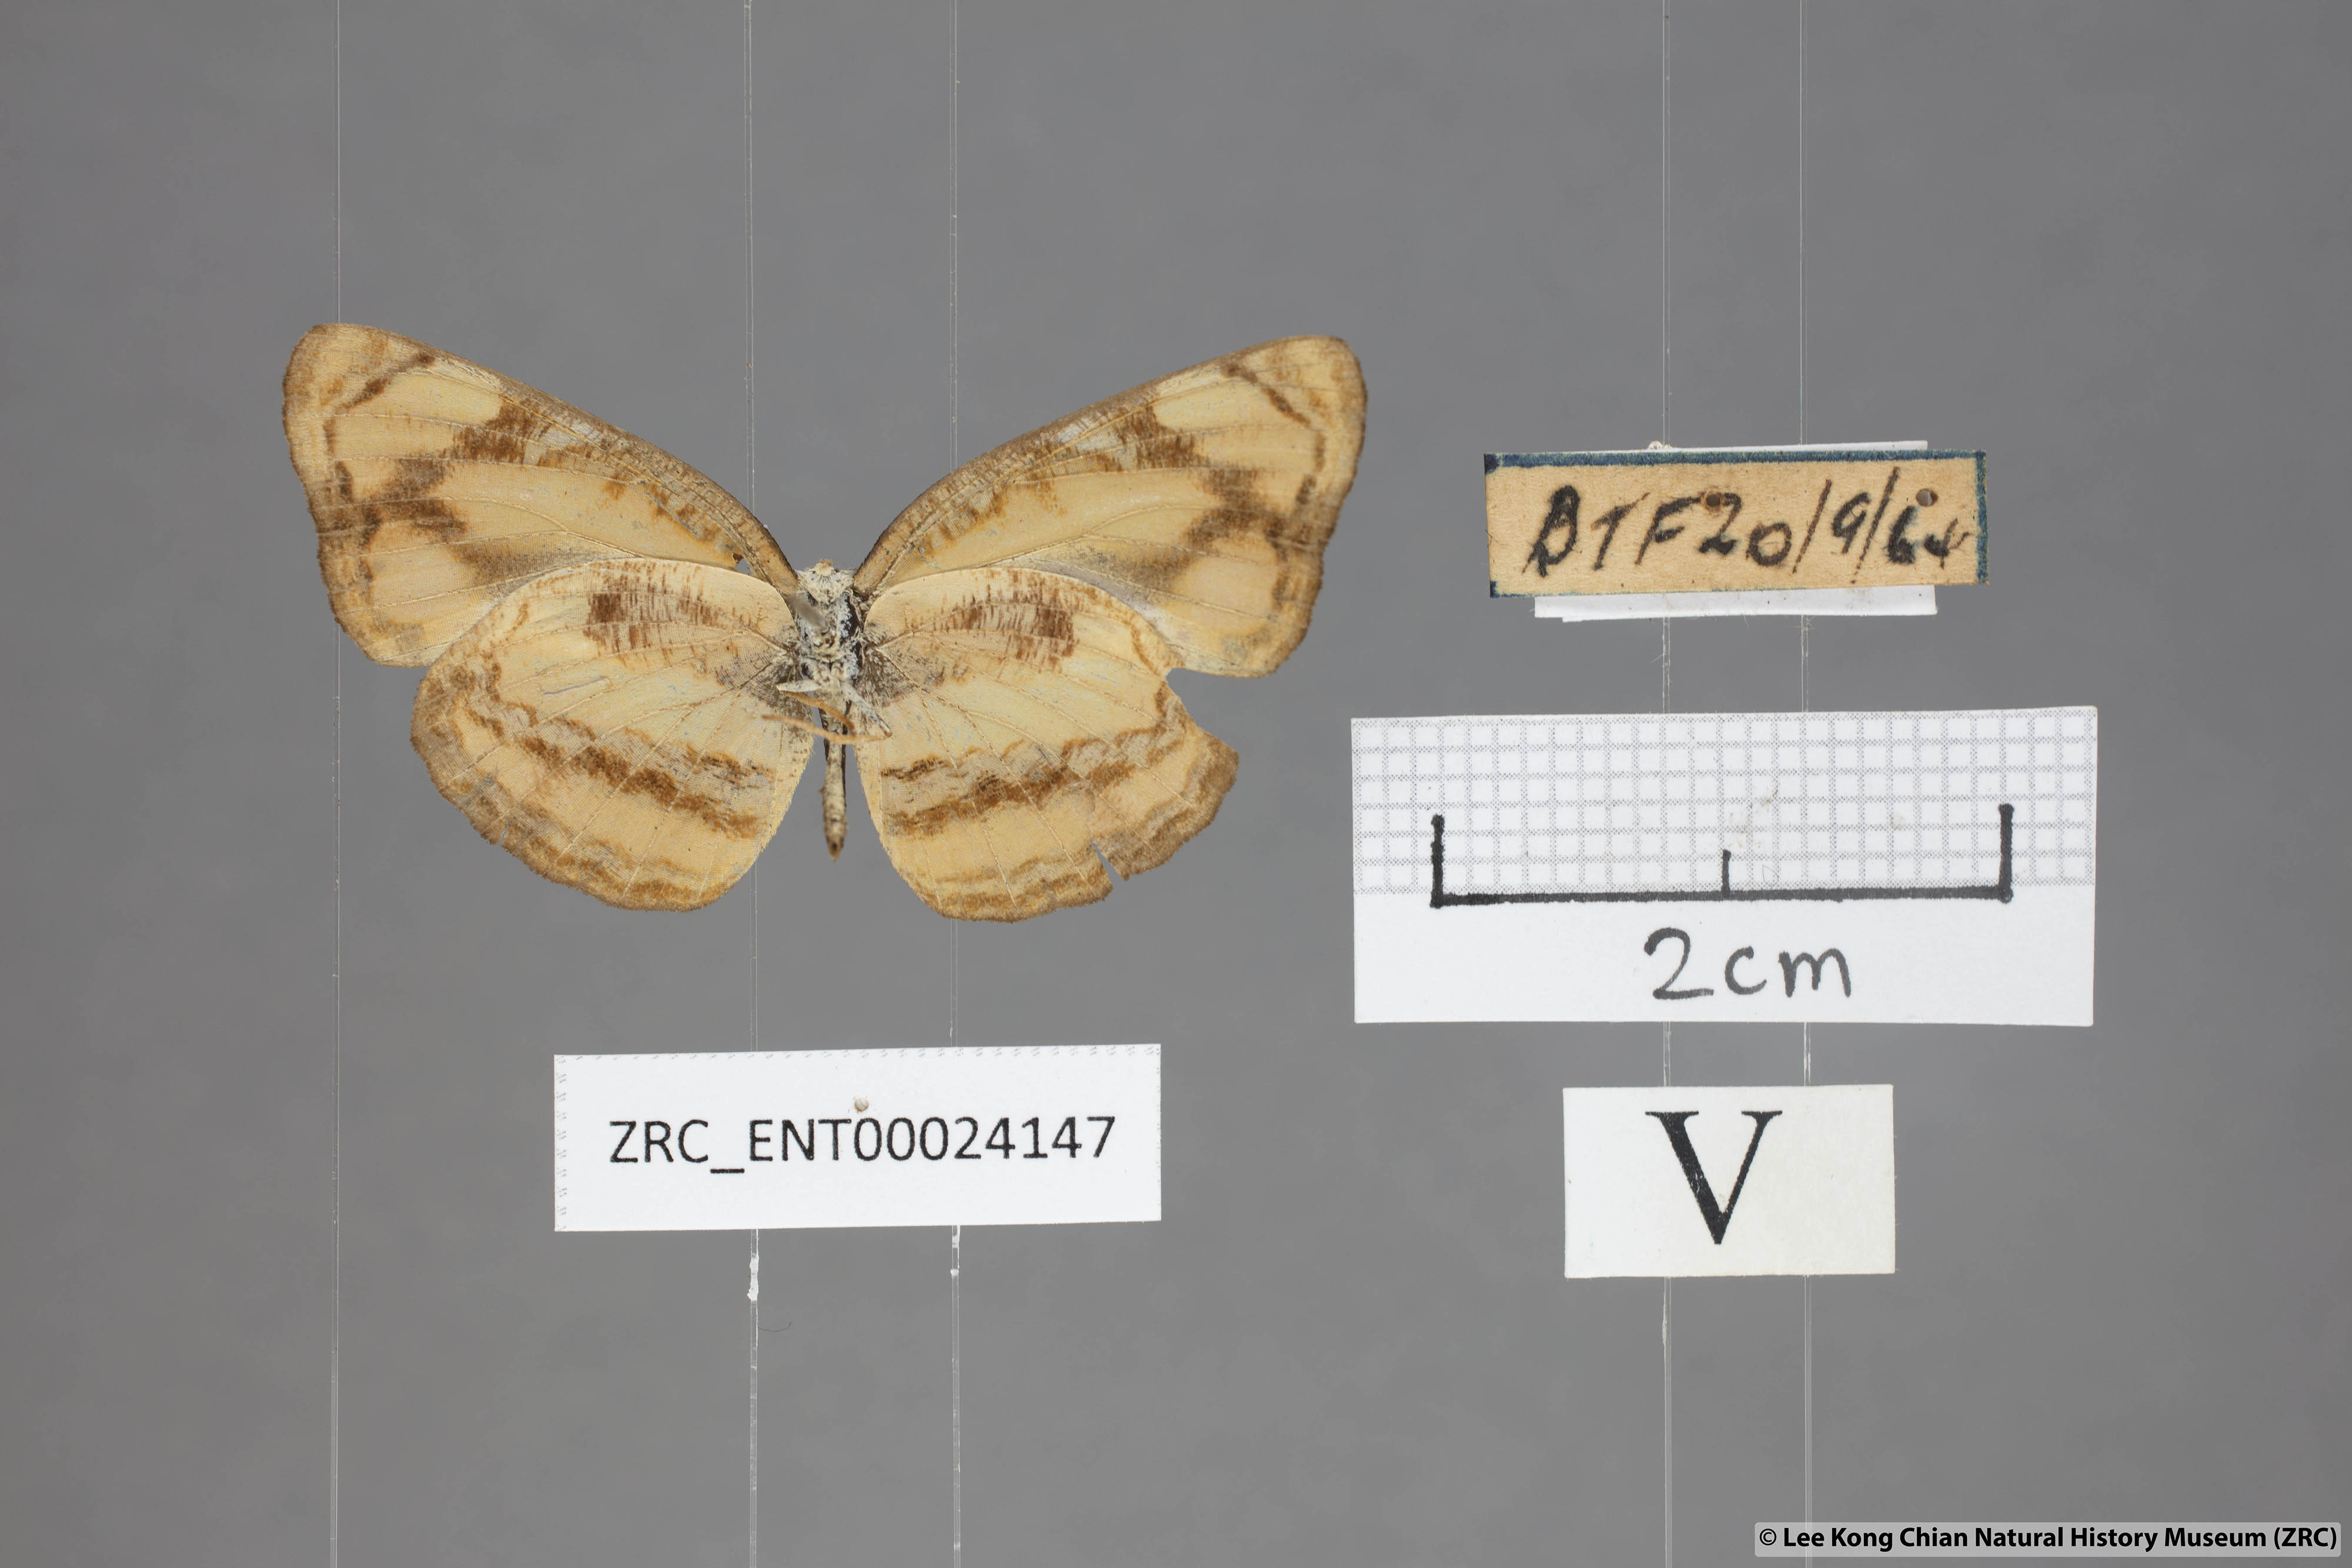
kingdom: Animalia
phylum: Arthropoda
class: Insecta
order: Lepidoptera
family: Nymphalidae
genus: Pantoporia
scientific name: Pantoporia sandaka
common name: Extra lascar
